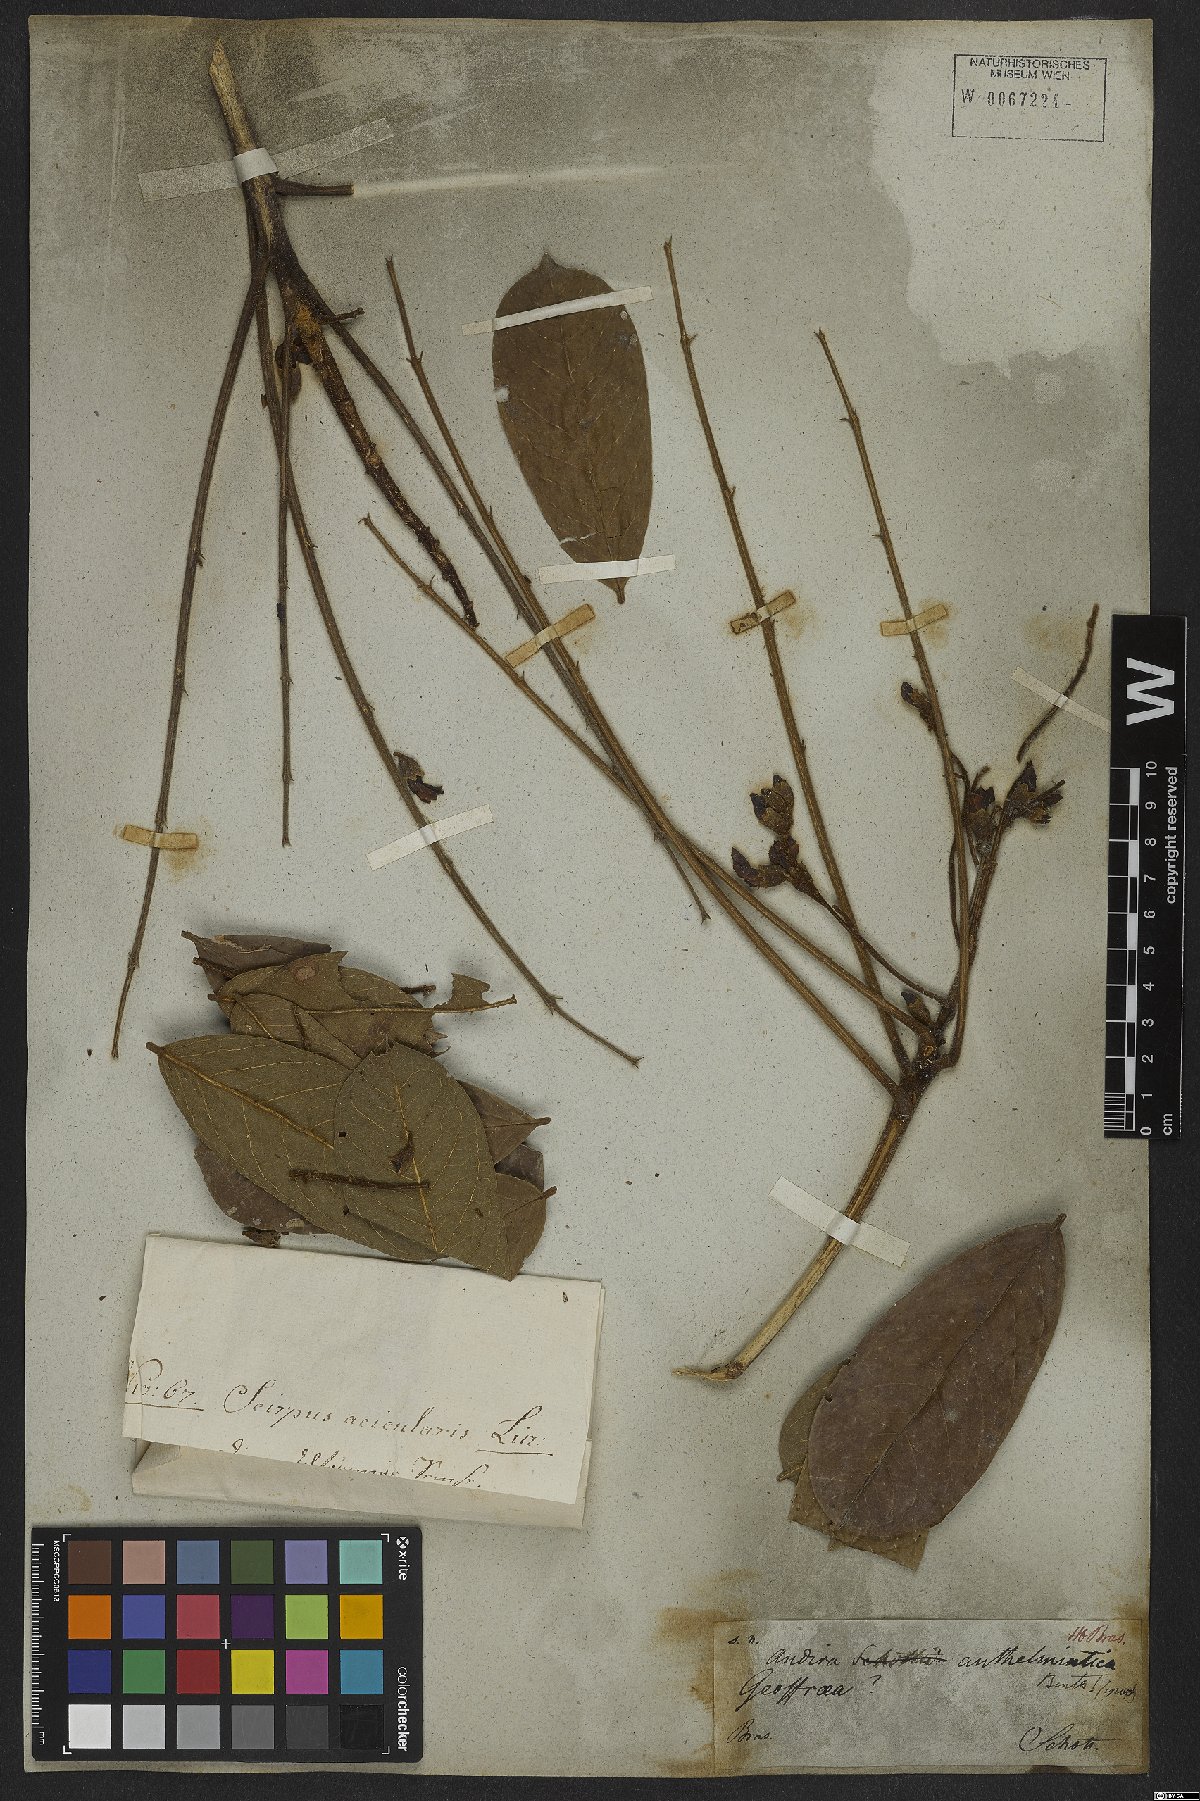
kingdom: Plantae
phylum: Tracheophyta
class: Magnoliopsida
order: Fabales
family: Fabaceae
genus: Andira
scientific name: Andira anthelmia
